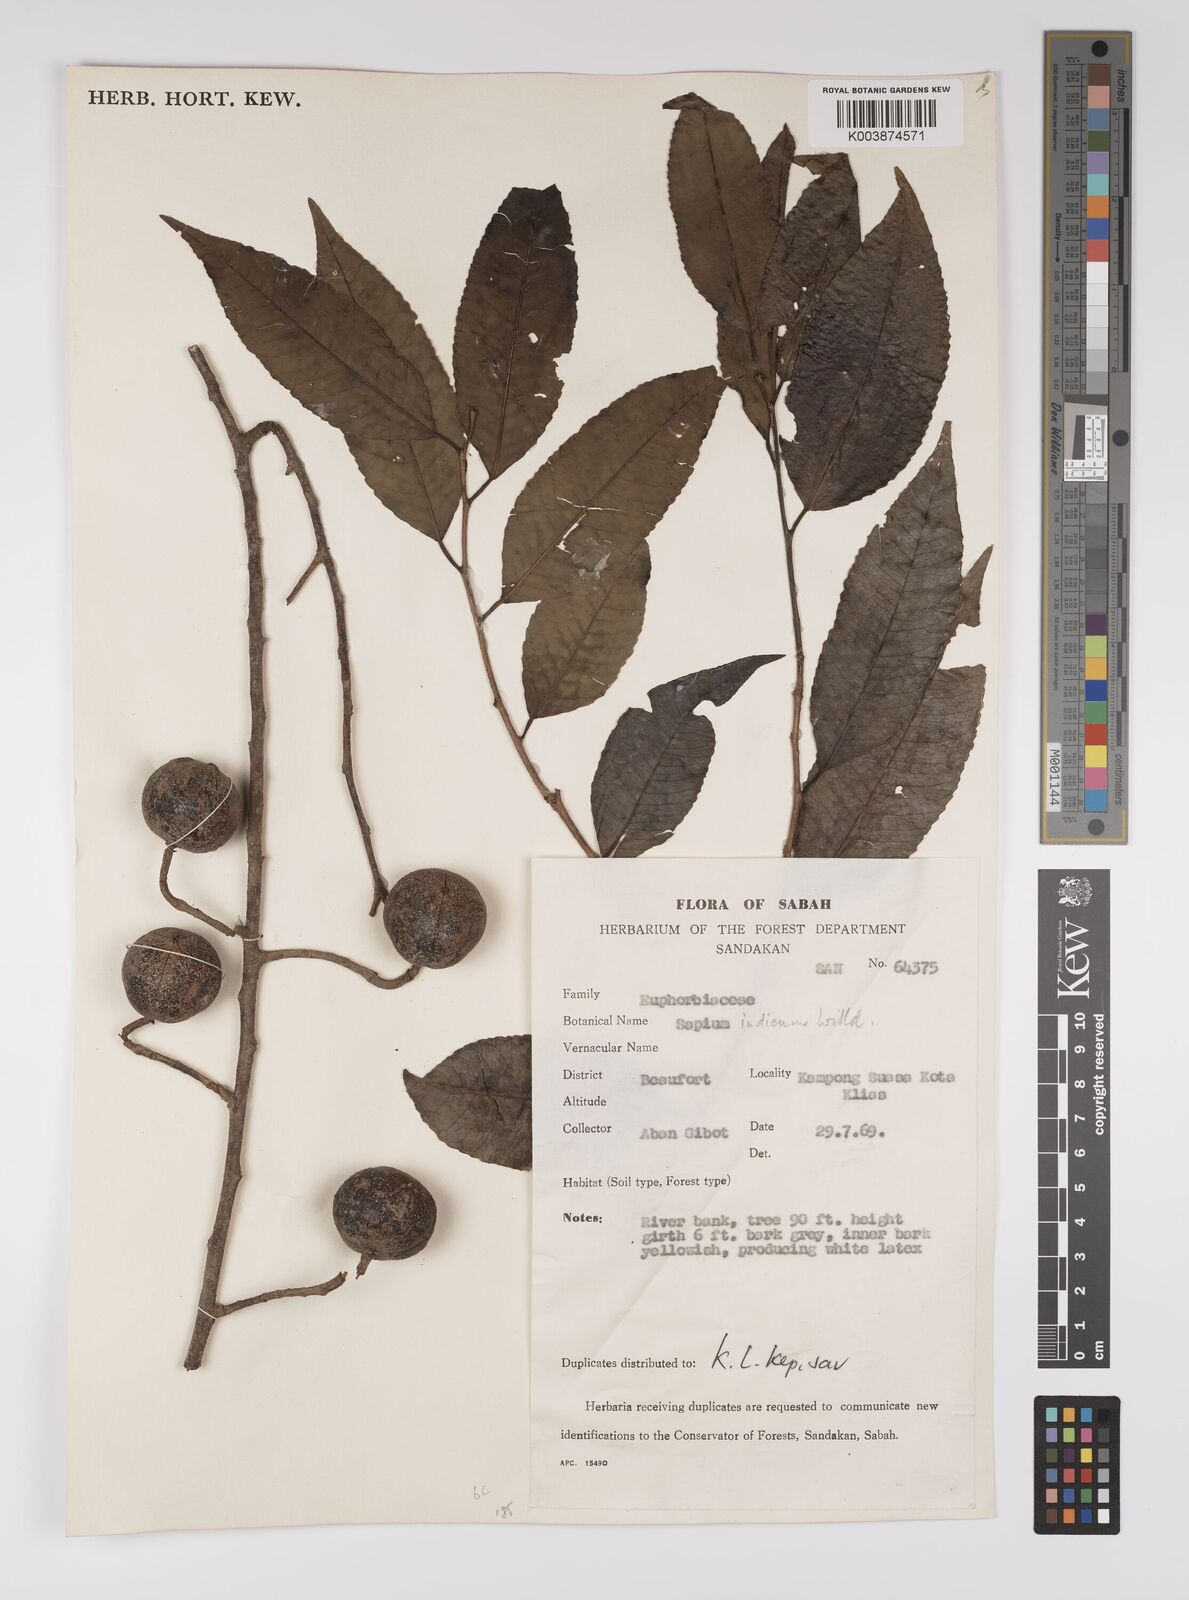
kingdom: Plantae
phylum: Tracheophyta
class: Magnoliopsida
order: Malpighiales
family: Euphorbiaceae
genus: Shirakiopsis
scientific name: Shirakiopsis indica
